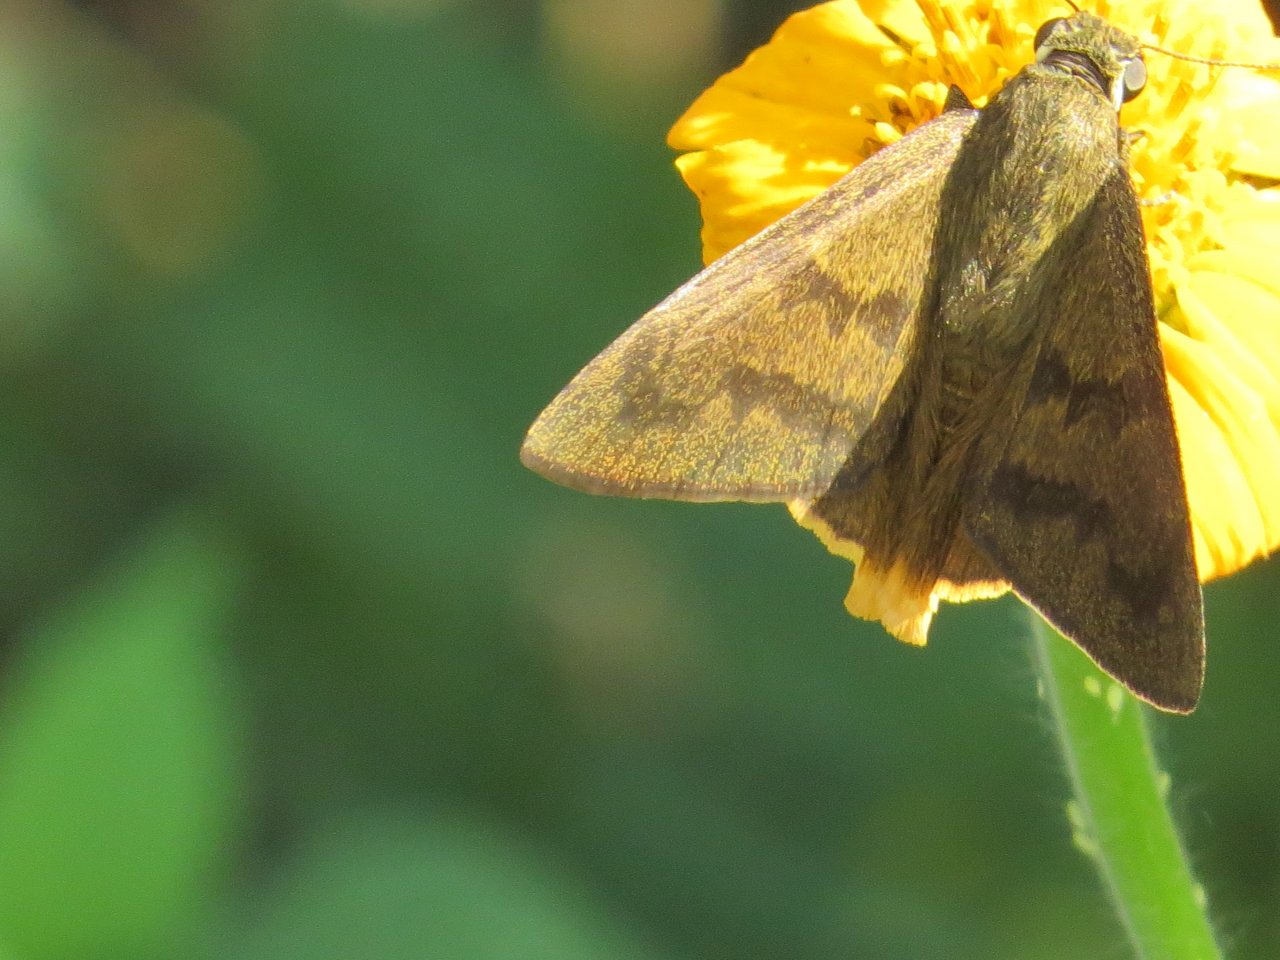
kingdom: Animalia
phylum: Arthropoda
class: Insecta
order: Lepidoptera
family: Hesperiidae
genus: Astraptes
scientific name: Astraptes anaphus
